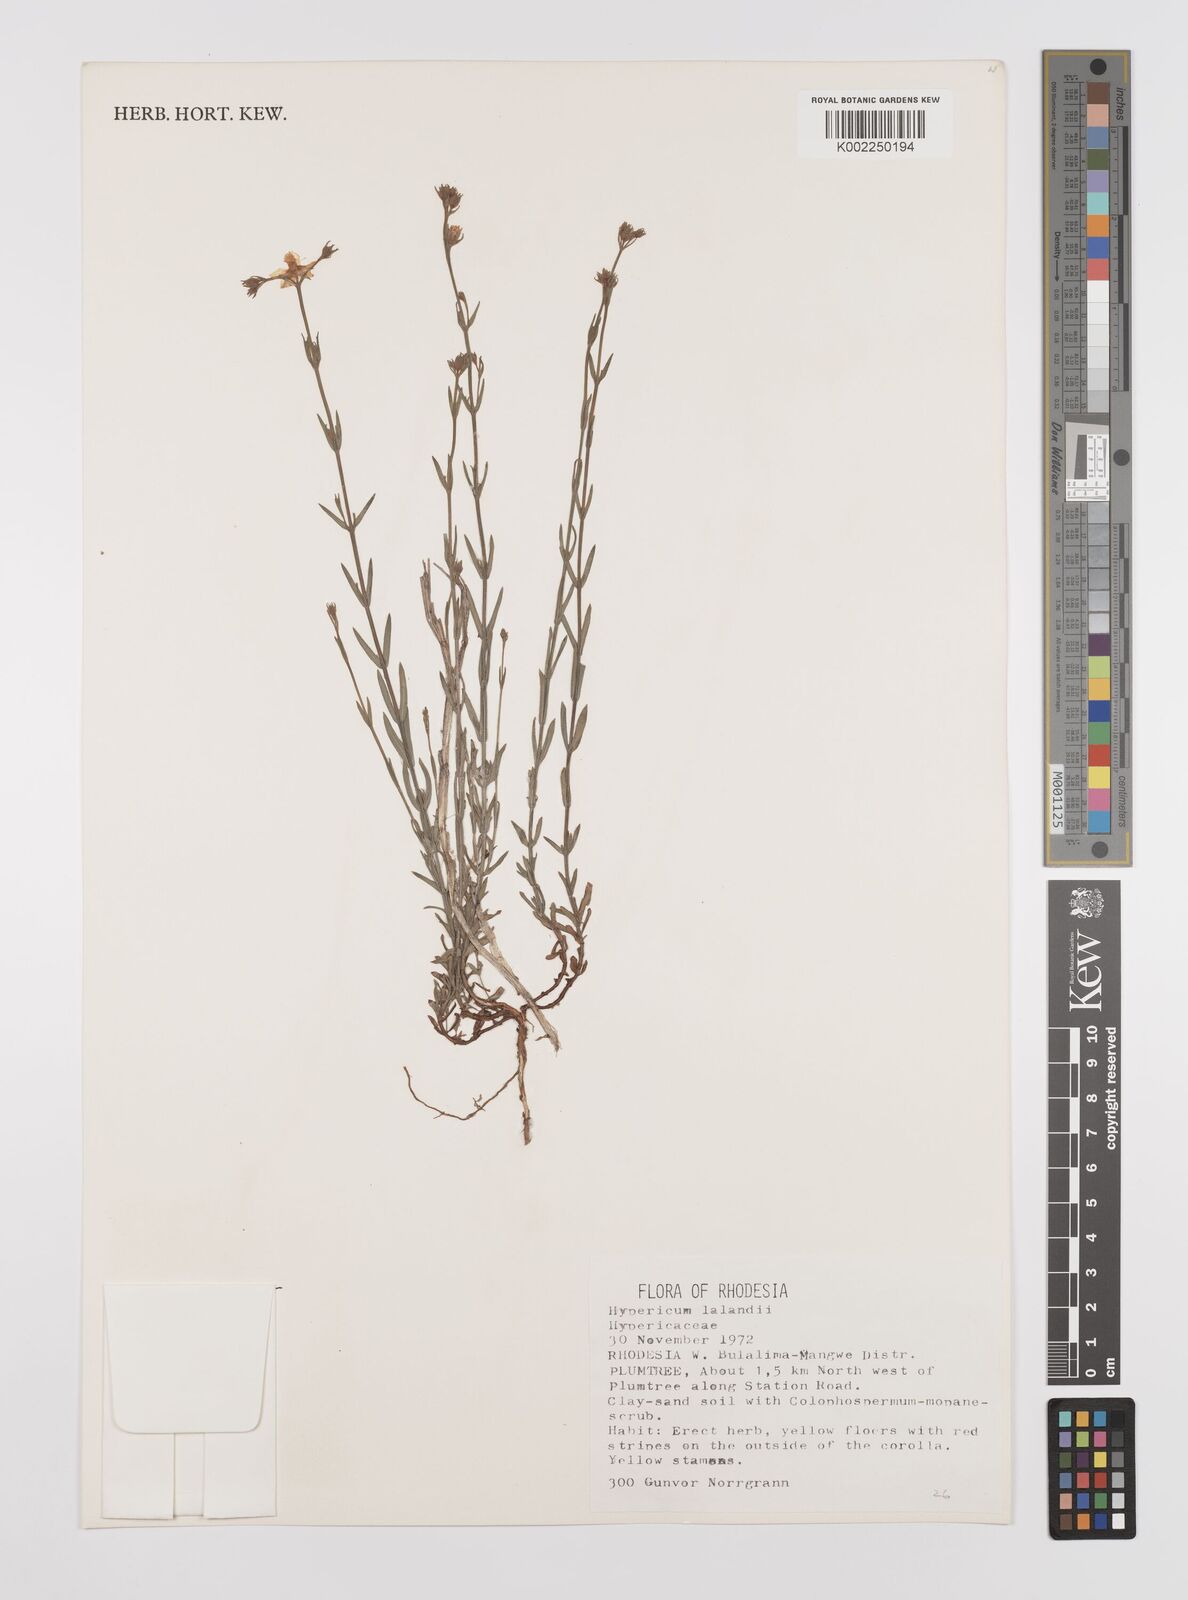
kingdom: Plantae
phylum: Tracheophyta
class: Magnoliopsida
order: Malpighiales
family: Hypericaceae
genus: Hypericum
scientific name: Hypericum lalandii
